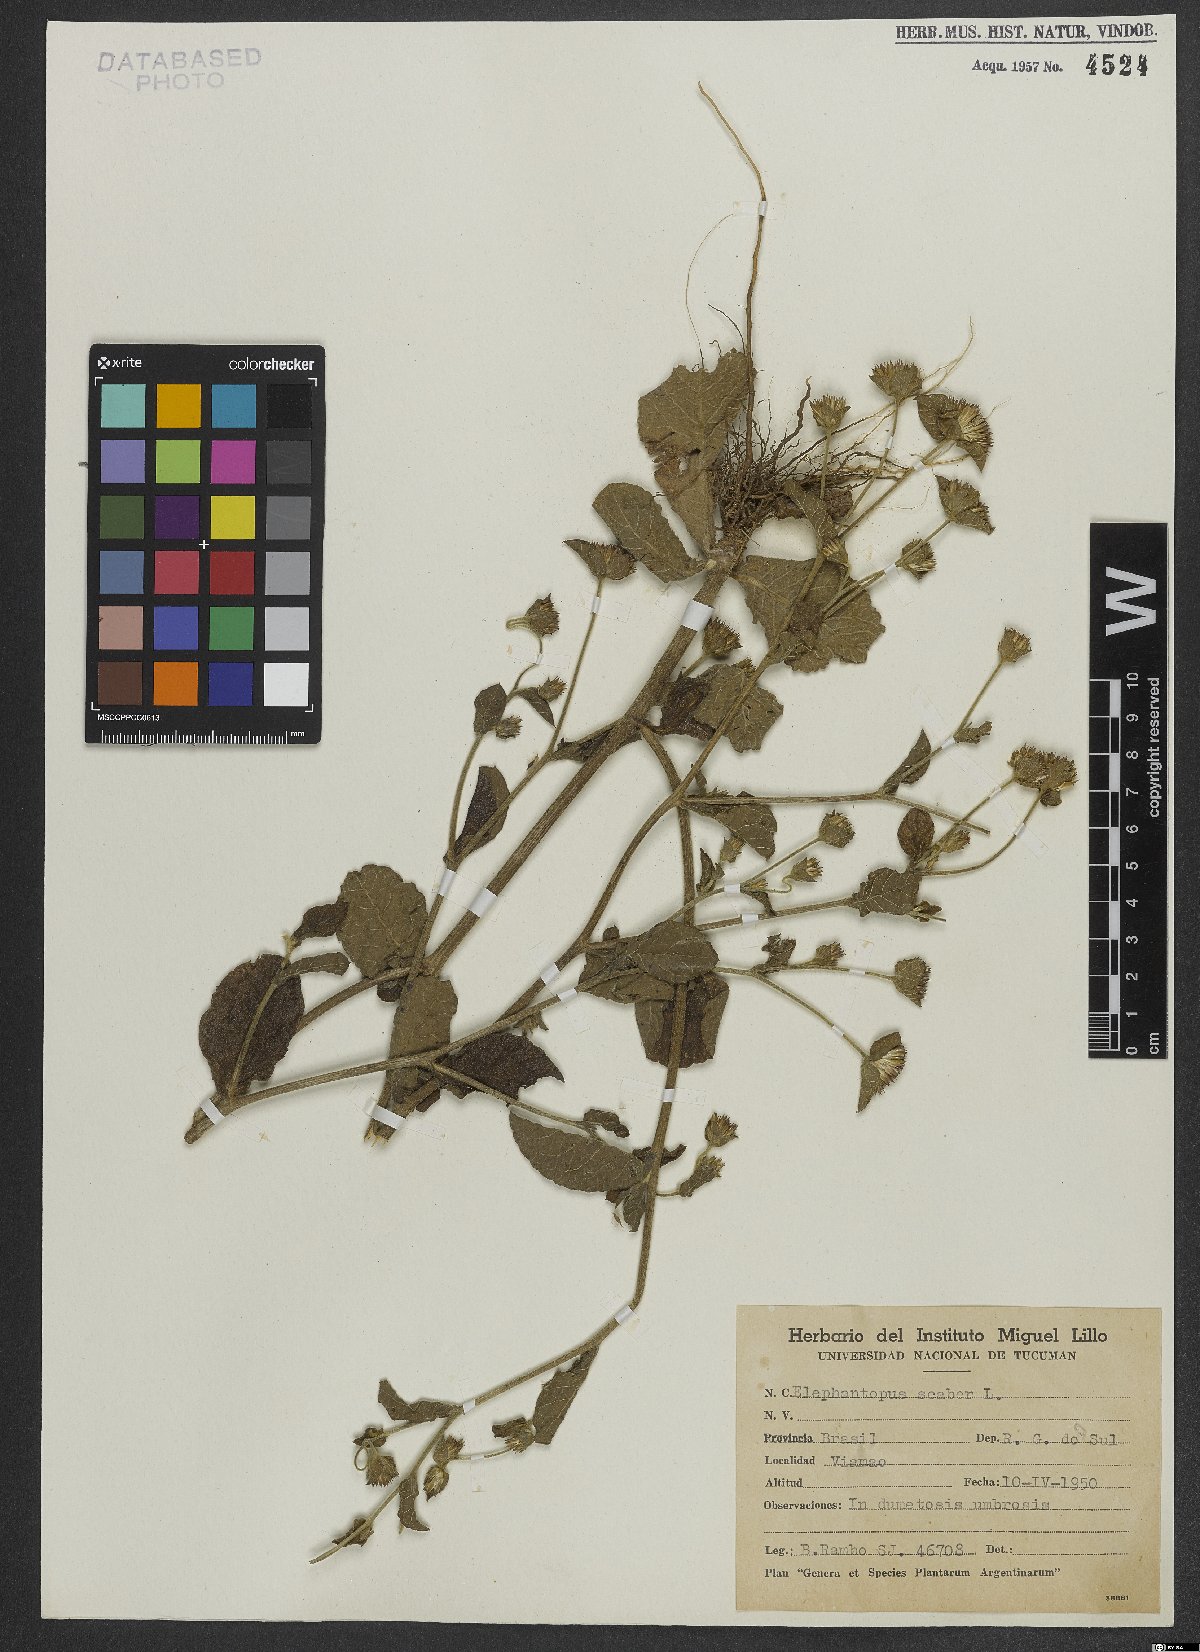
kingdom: Plantae
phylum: Tracheophyta
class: Magnoliopsida
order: Asterales
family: Asteraceae
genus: Elephantopus
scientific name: Elephantopus scaber
